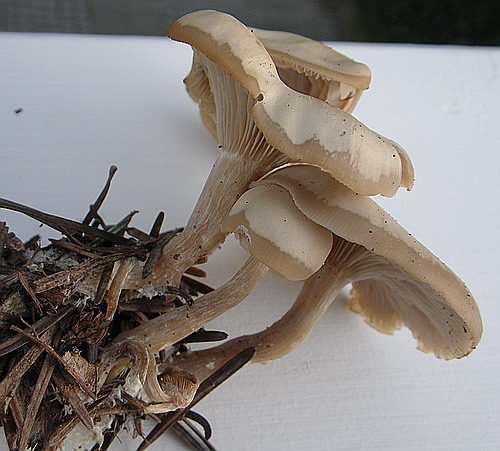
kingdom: Fungi
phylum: Basidiomycota
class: Agaricomycetes
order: Agaricales
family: Tricholomataceae
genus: Clitocybe
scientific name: Clitocybe metachroa
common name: grå tragthat
